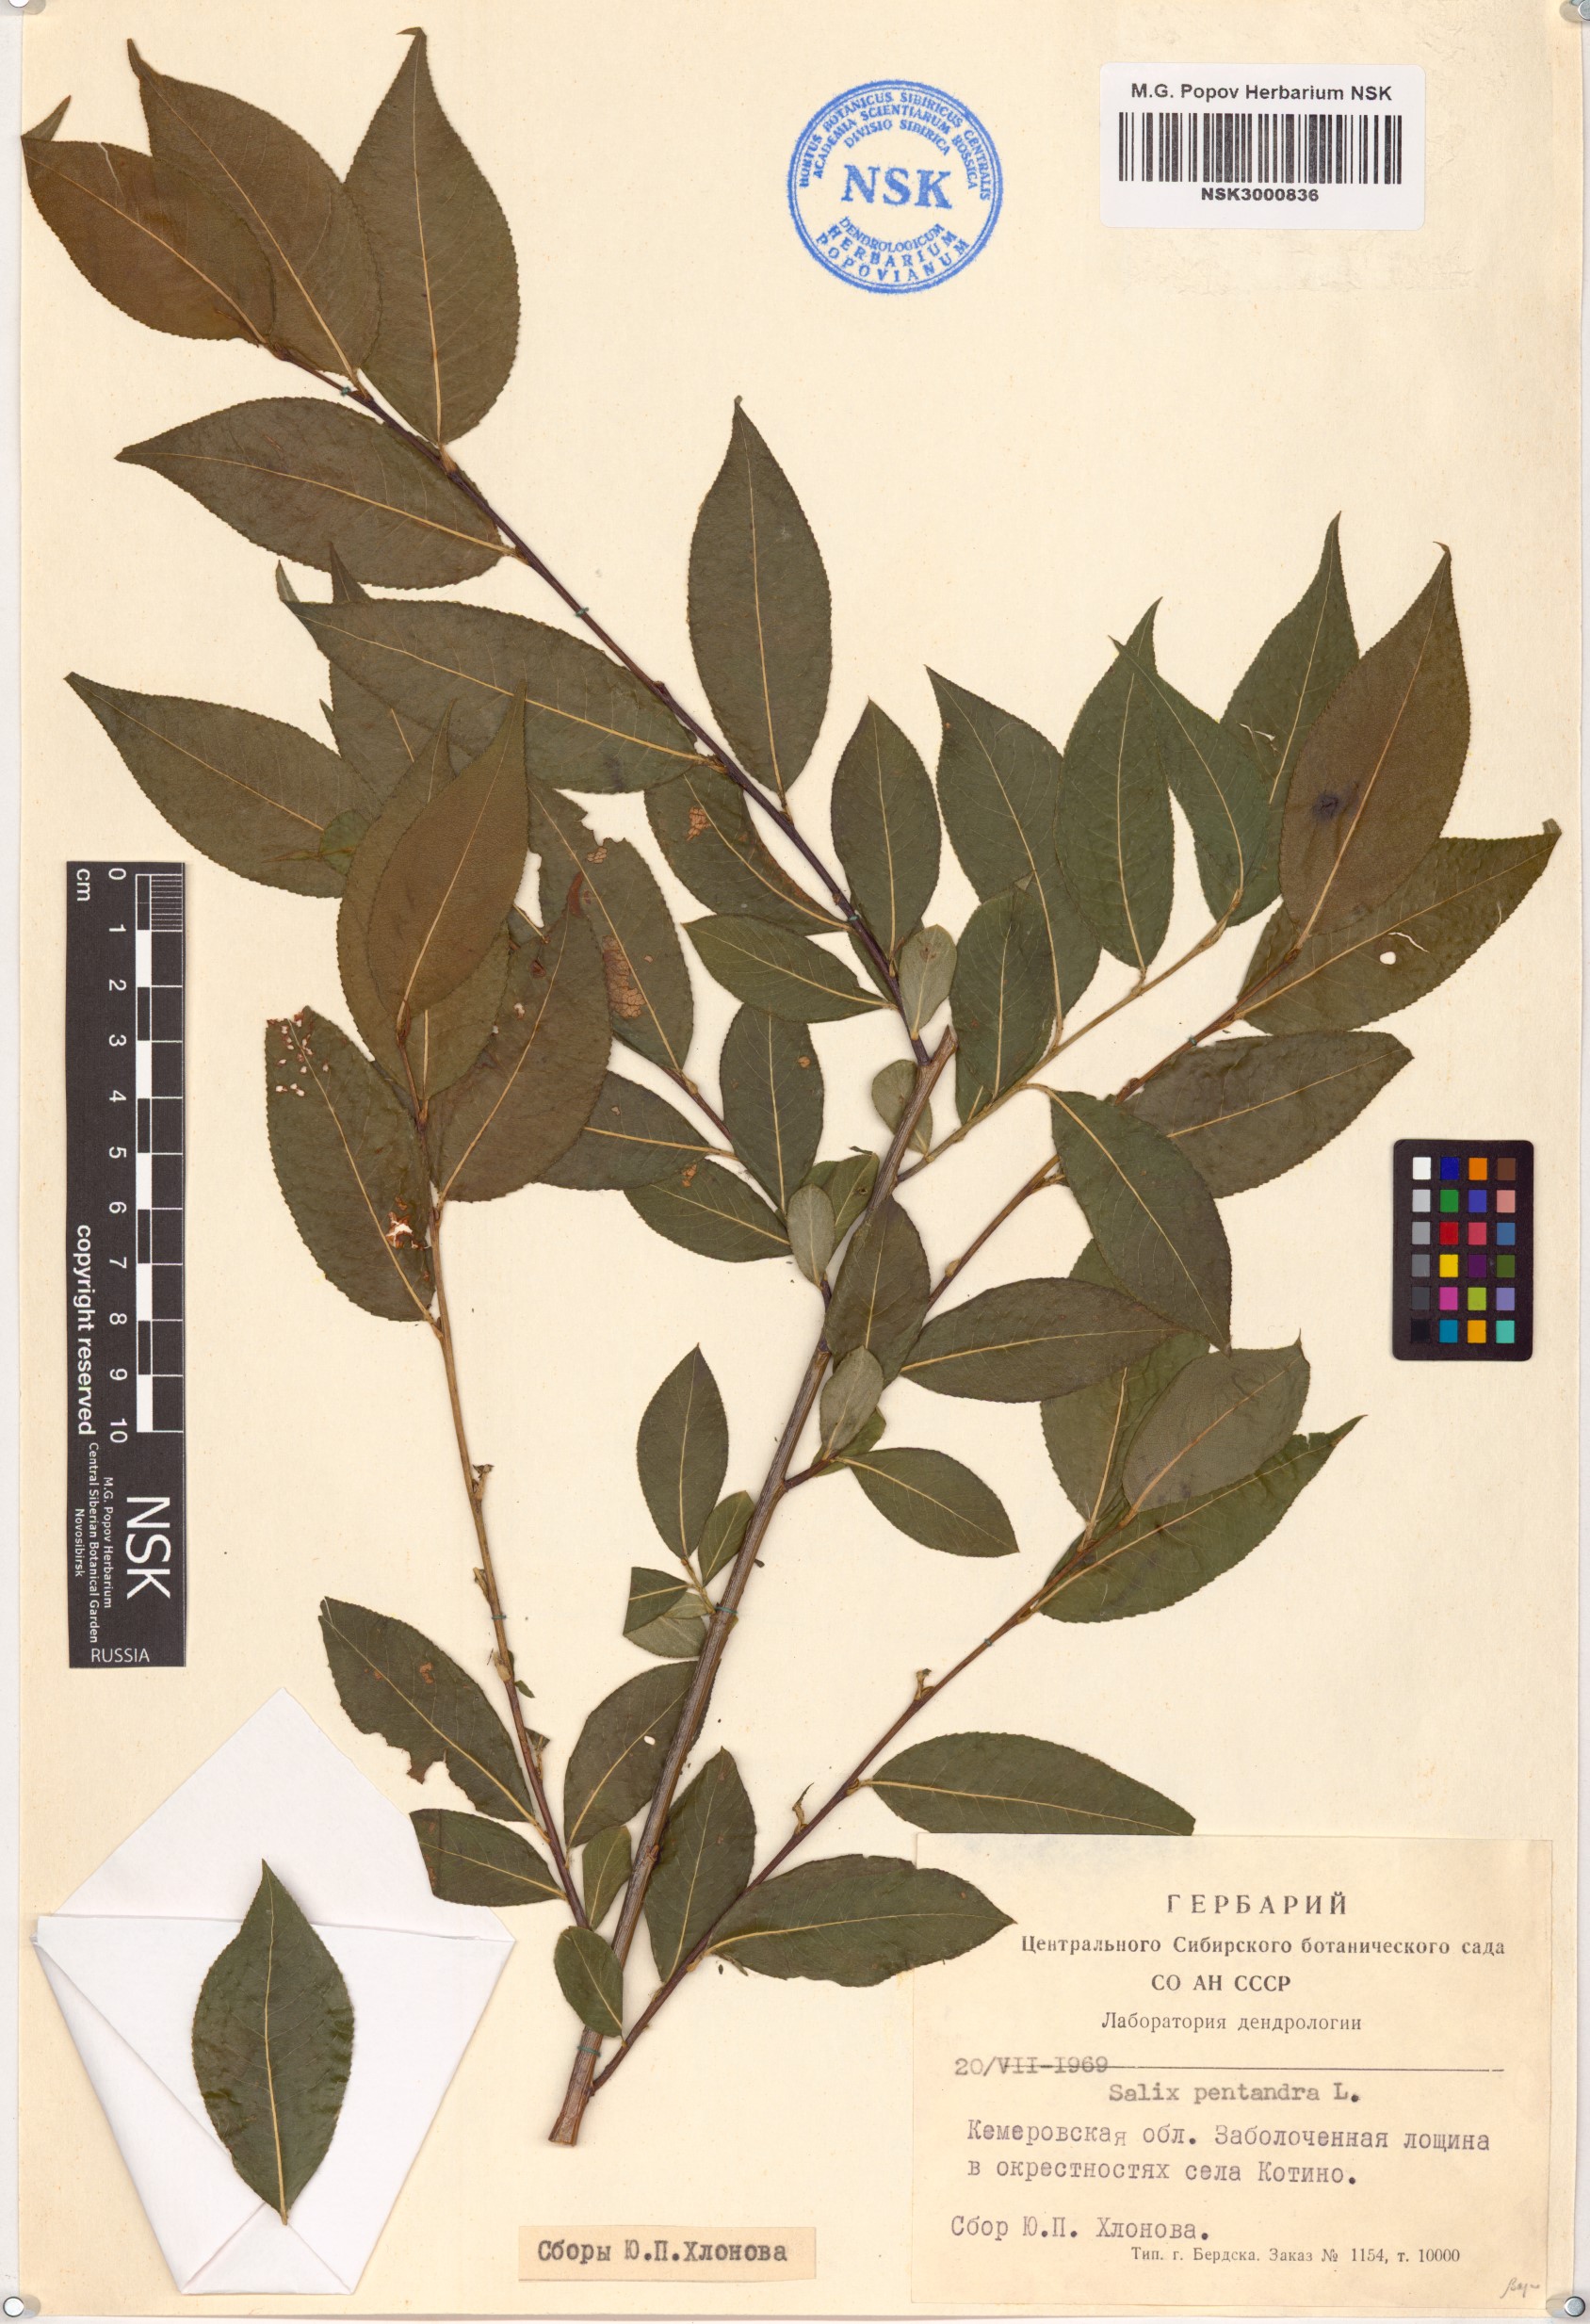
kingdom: Plantae
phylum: Tracheophyta
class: Magnoliopsida
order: Malpighiales
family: Salicaceae
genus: Salix
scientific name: Salix pentandra
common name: Bay willow
